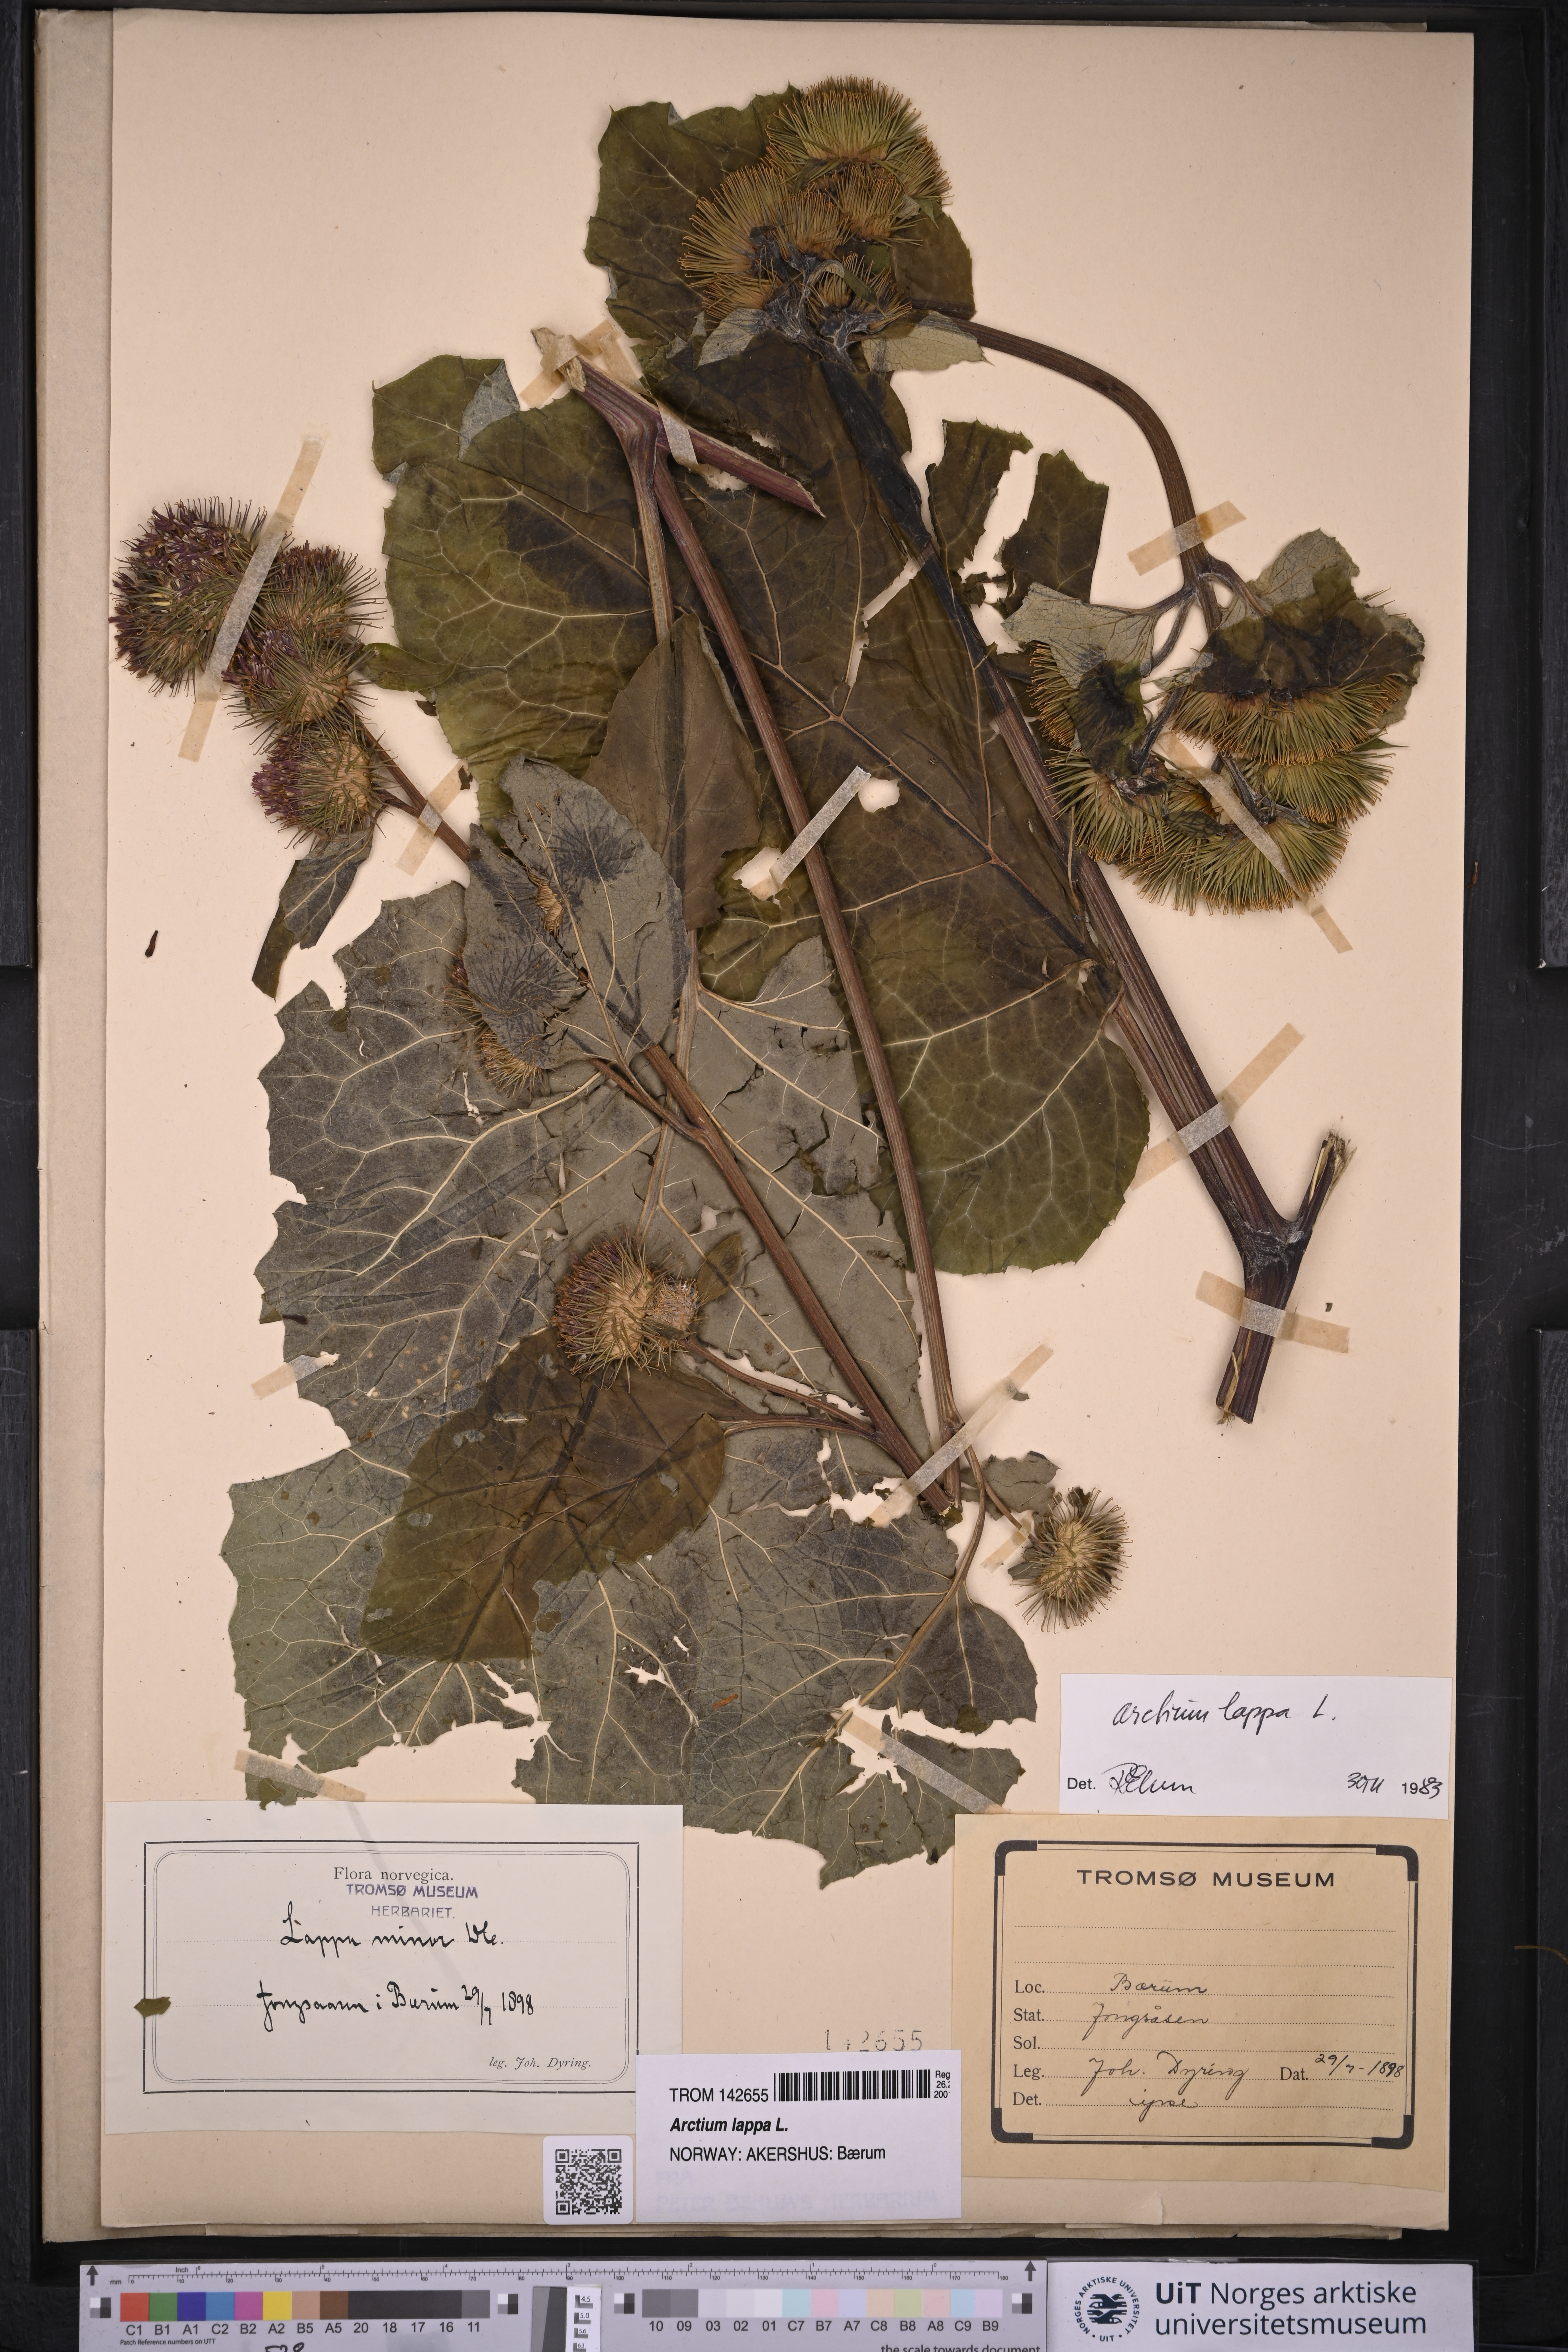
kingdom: Plantae
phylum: Tracheophyta
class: Magnoliopsida
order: Asterales
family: Asteraceae
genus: Arctium
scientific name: Arctium lappa
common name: Greater burdock
